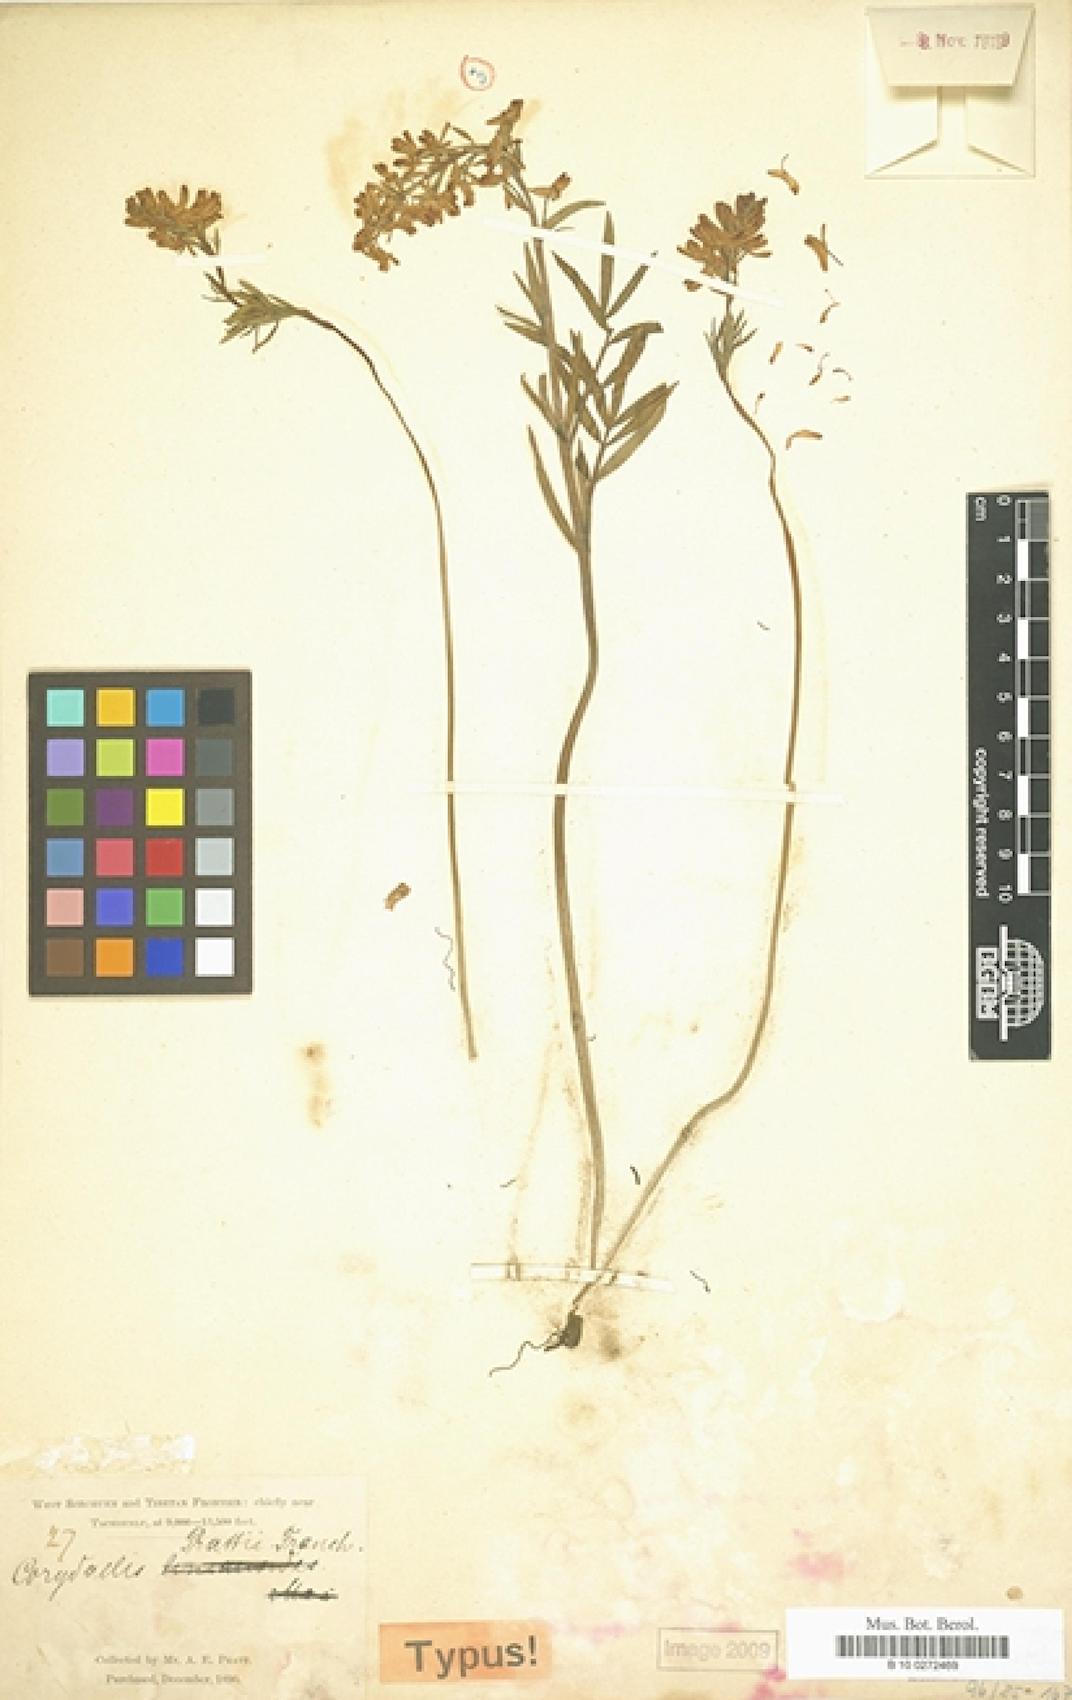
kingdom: Plantae
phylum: Tracheophyta
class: Magnoliopsida
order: Ranunculales
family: Papaveraceae
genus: Corydalis
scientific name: Corydalis prattii
